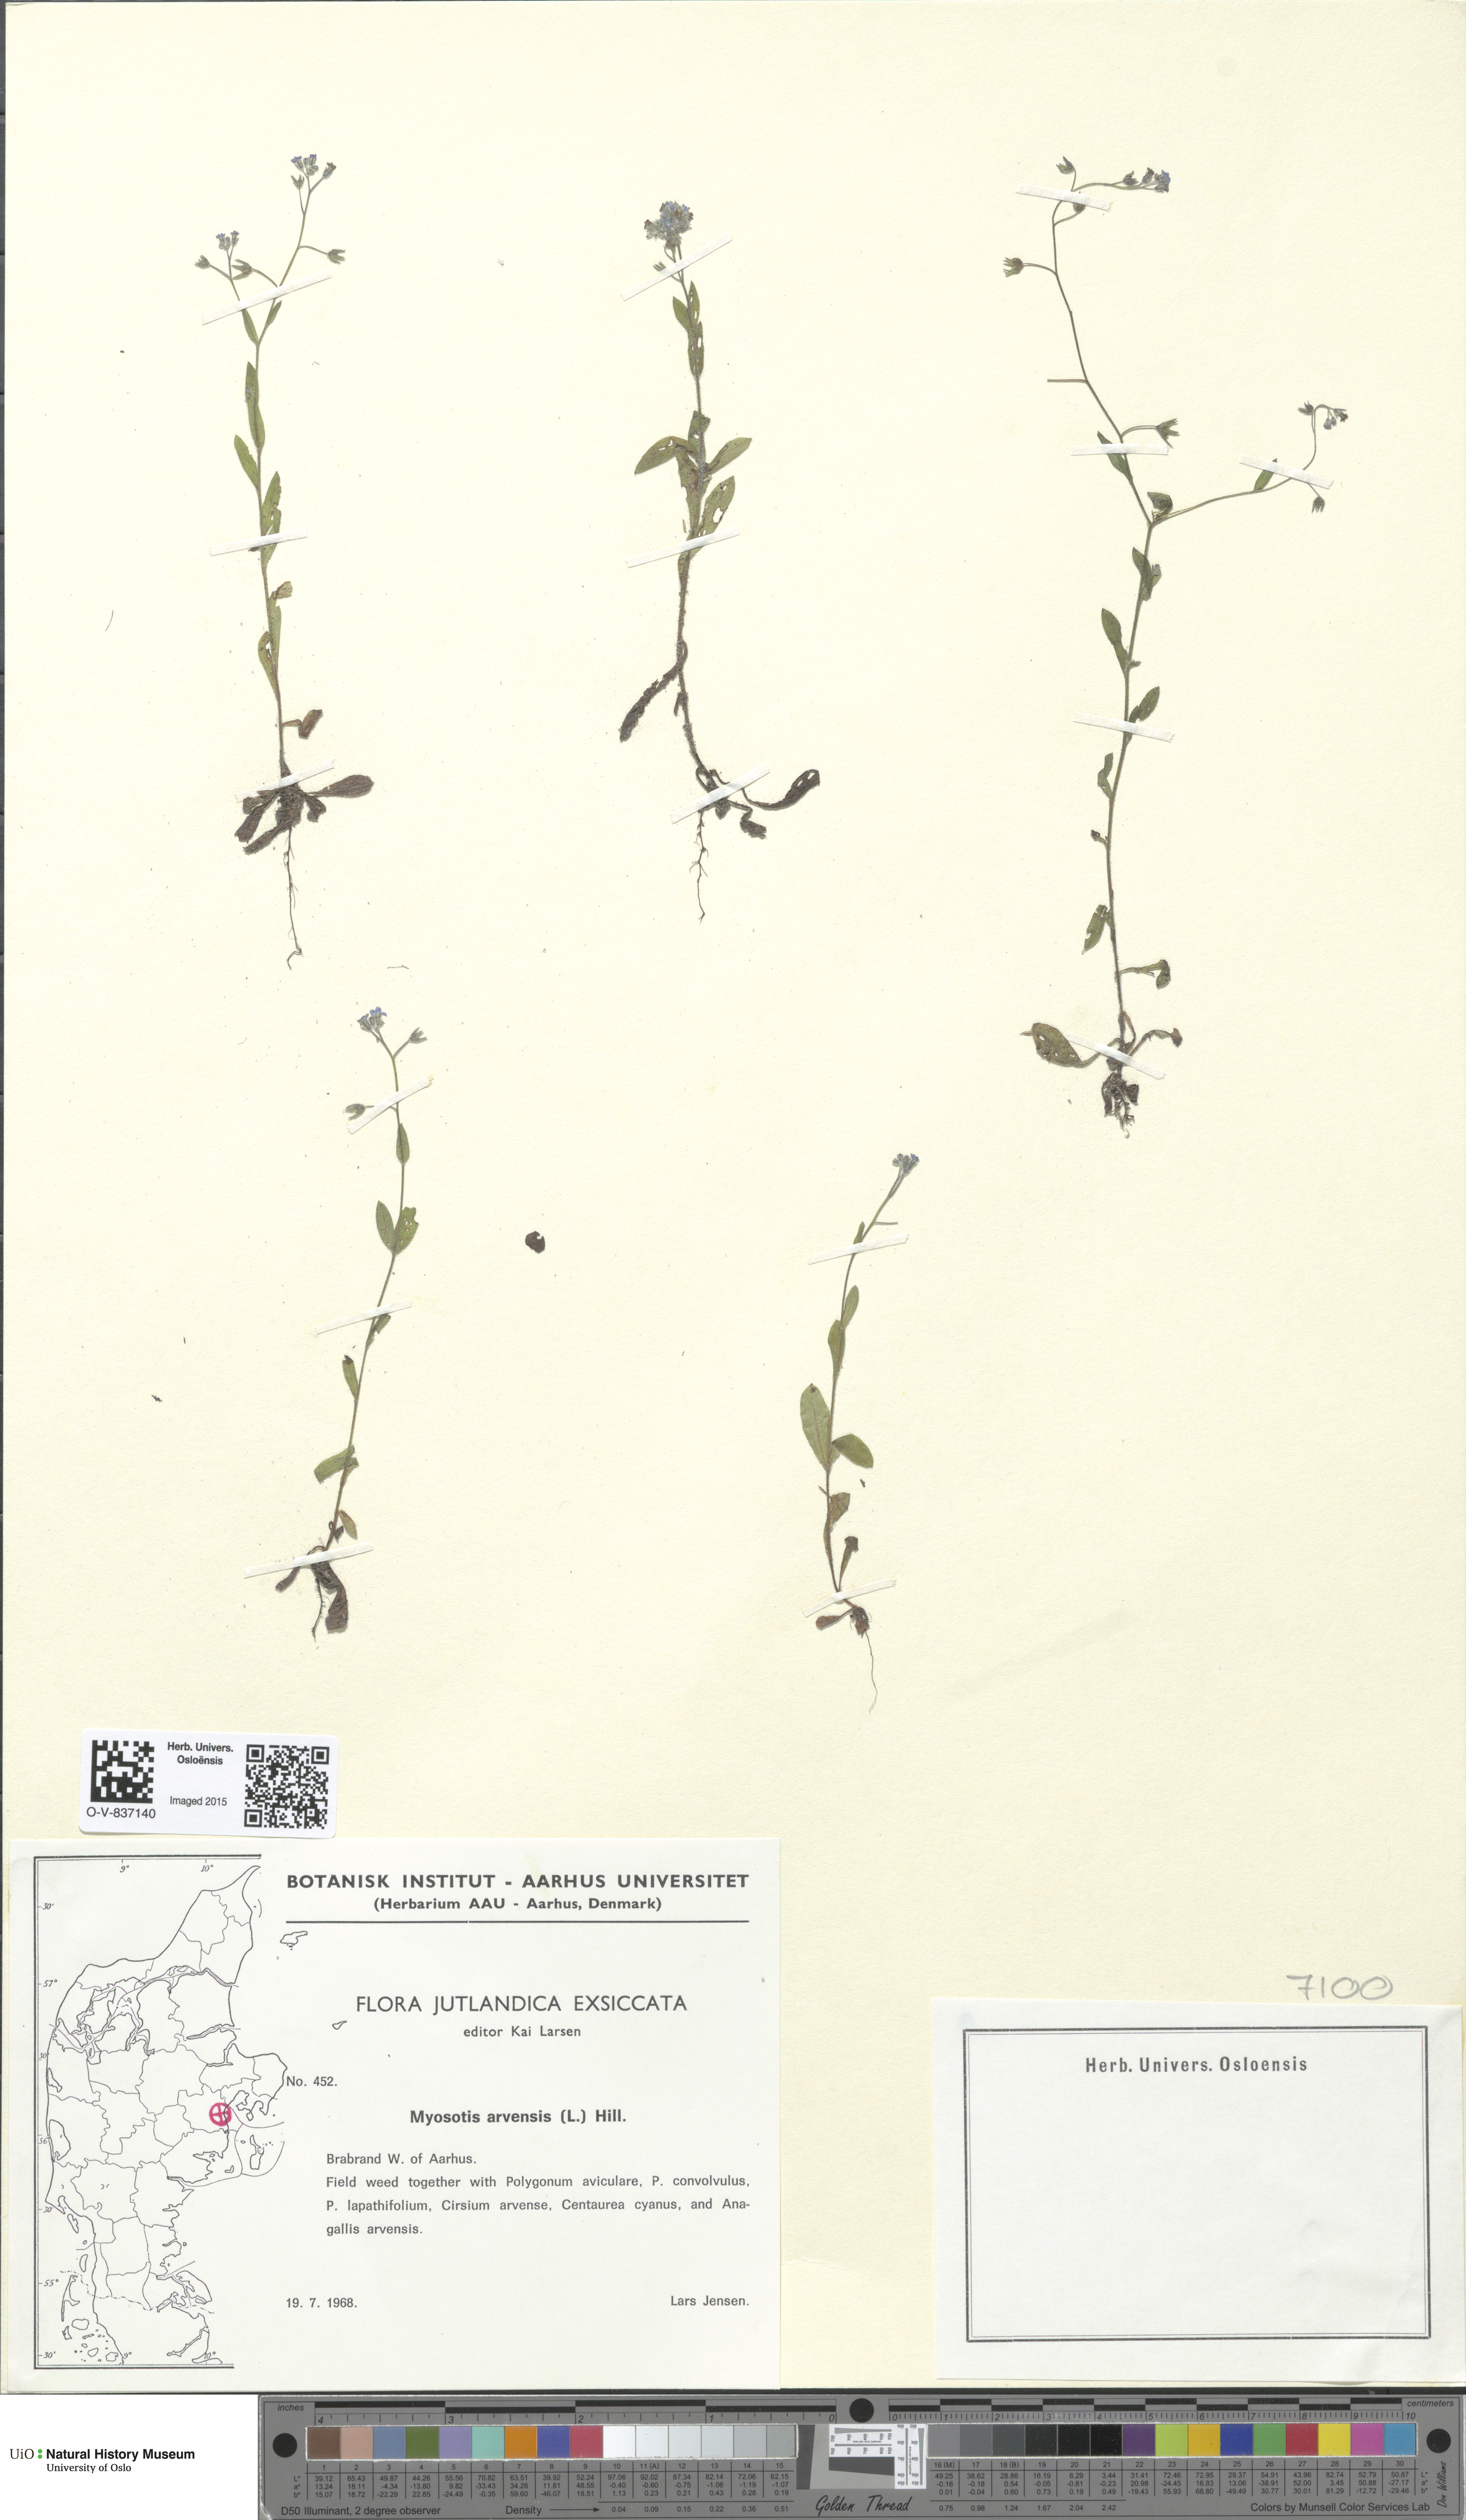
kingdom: Plantae
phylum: Tracheophyta
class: Magnoliopsida
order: Boraginales
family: Boraginaceae
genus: Myosotis
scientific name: Myosotis arvensis
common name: Field forget-me-not
